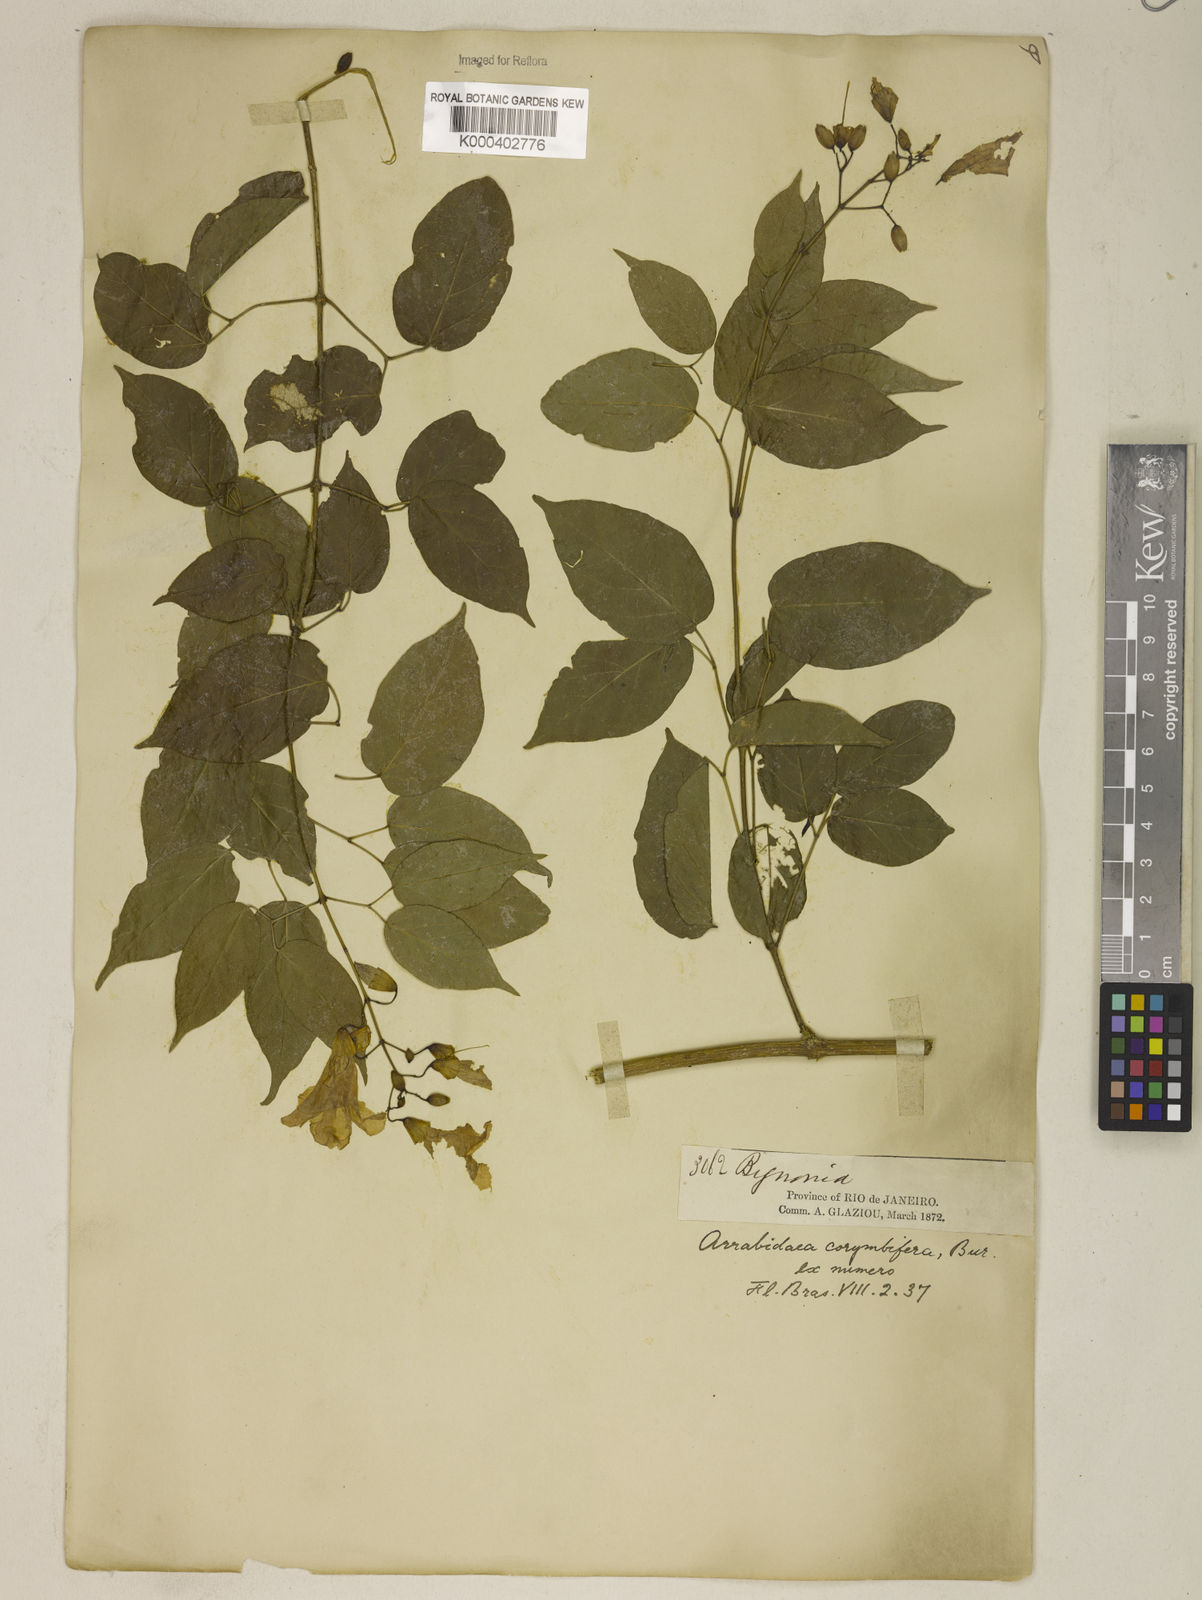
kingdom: Plantae
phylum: Tracheophyta
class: Magnoliopsida
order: Lamiales
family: Bignoniaceae
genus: Tanaecium
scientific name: Tanaecium selloi
